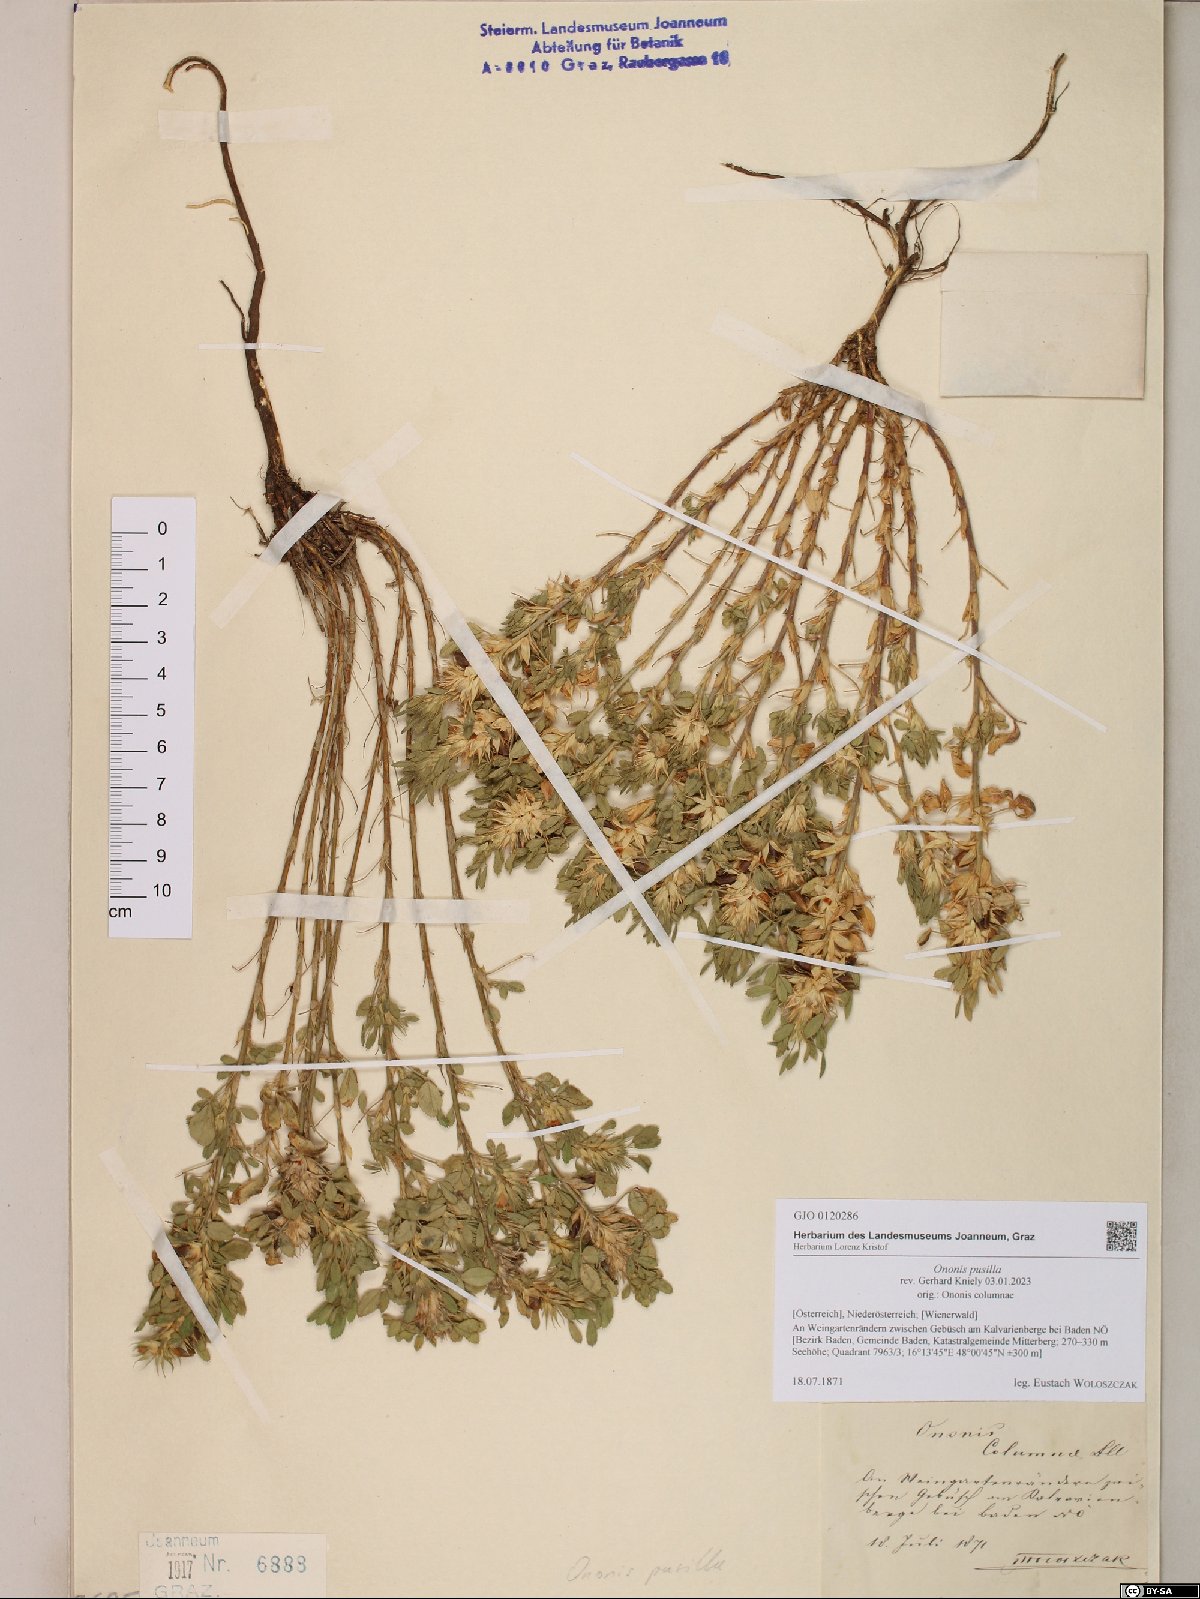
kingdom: Plantae
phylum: Tracheophyta
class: Magnoliopsida
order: Fabales
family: Fabaceae
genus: Ononis
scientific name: Ononis pusilla
